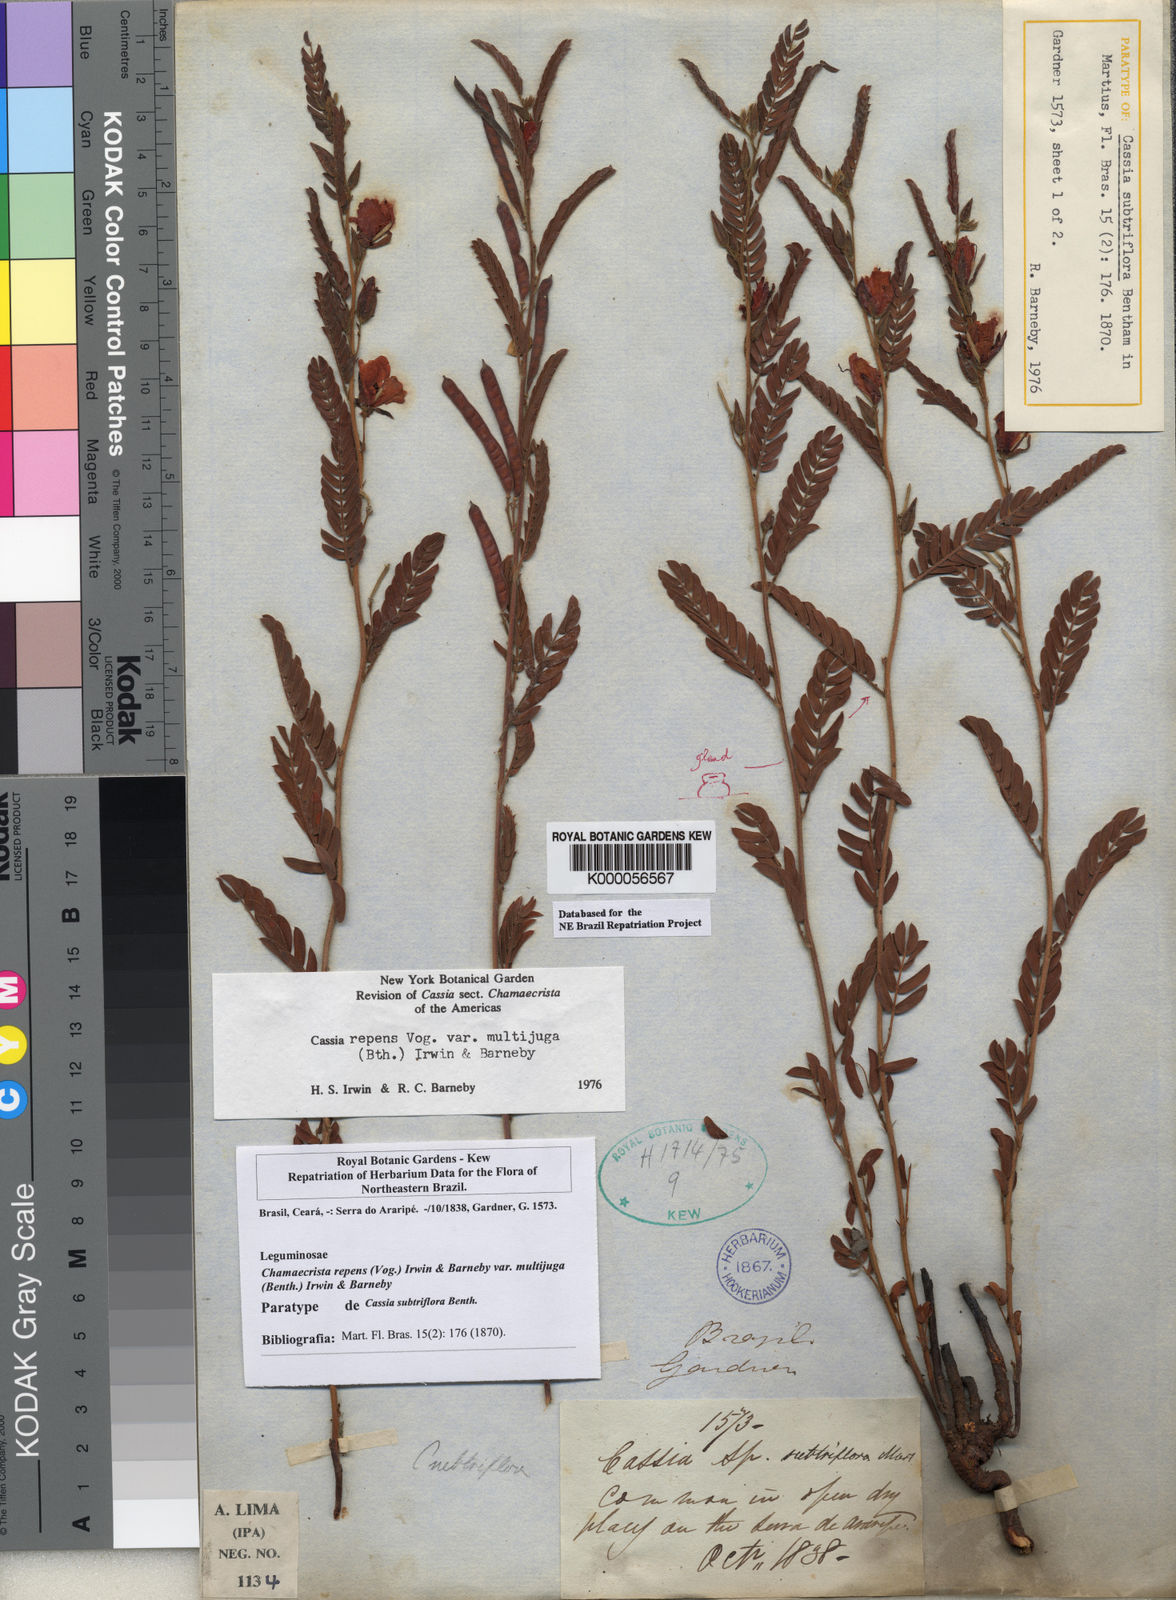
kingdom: Plantae
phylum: Tracheophyta
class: Magnoliopsida
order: Fabales
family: Fabaceae
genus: Chamaecrista
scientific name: Chamaecrista repens
